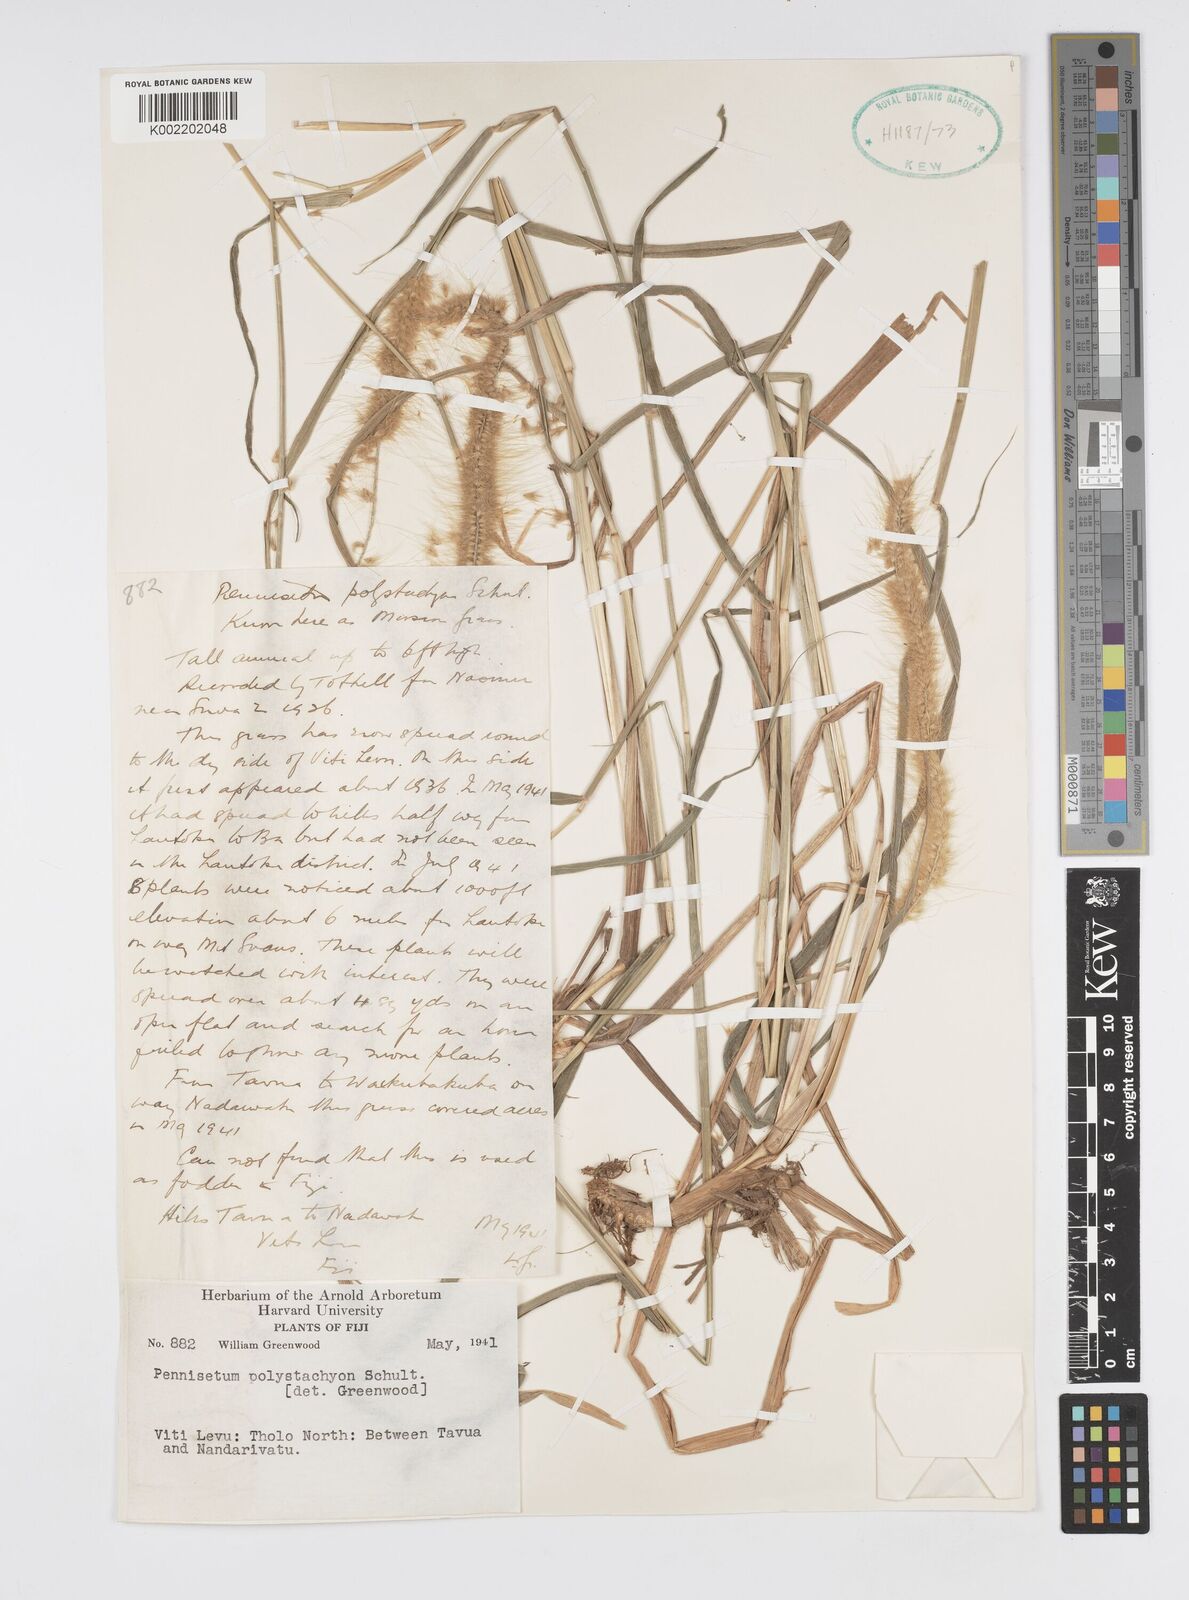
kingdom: Plantae
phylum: Tracheophyta
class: Liliopsida
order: Poales
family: Poaceae
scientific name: Poaceae
